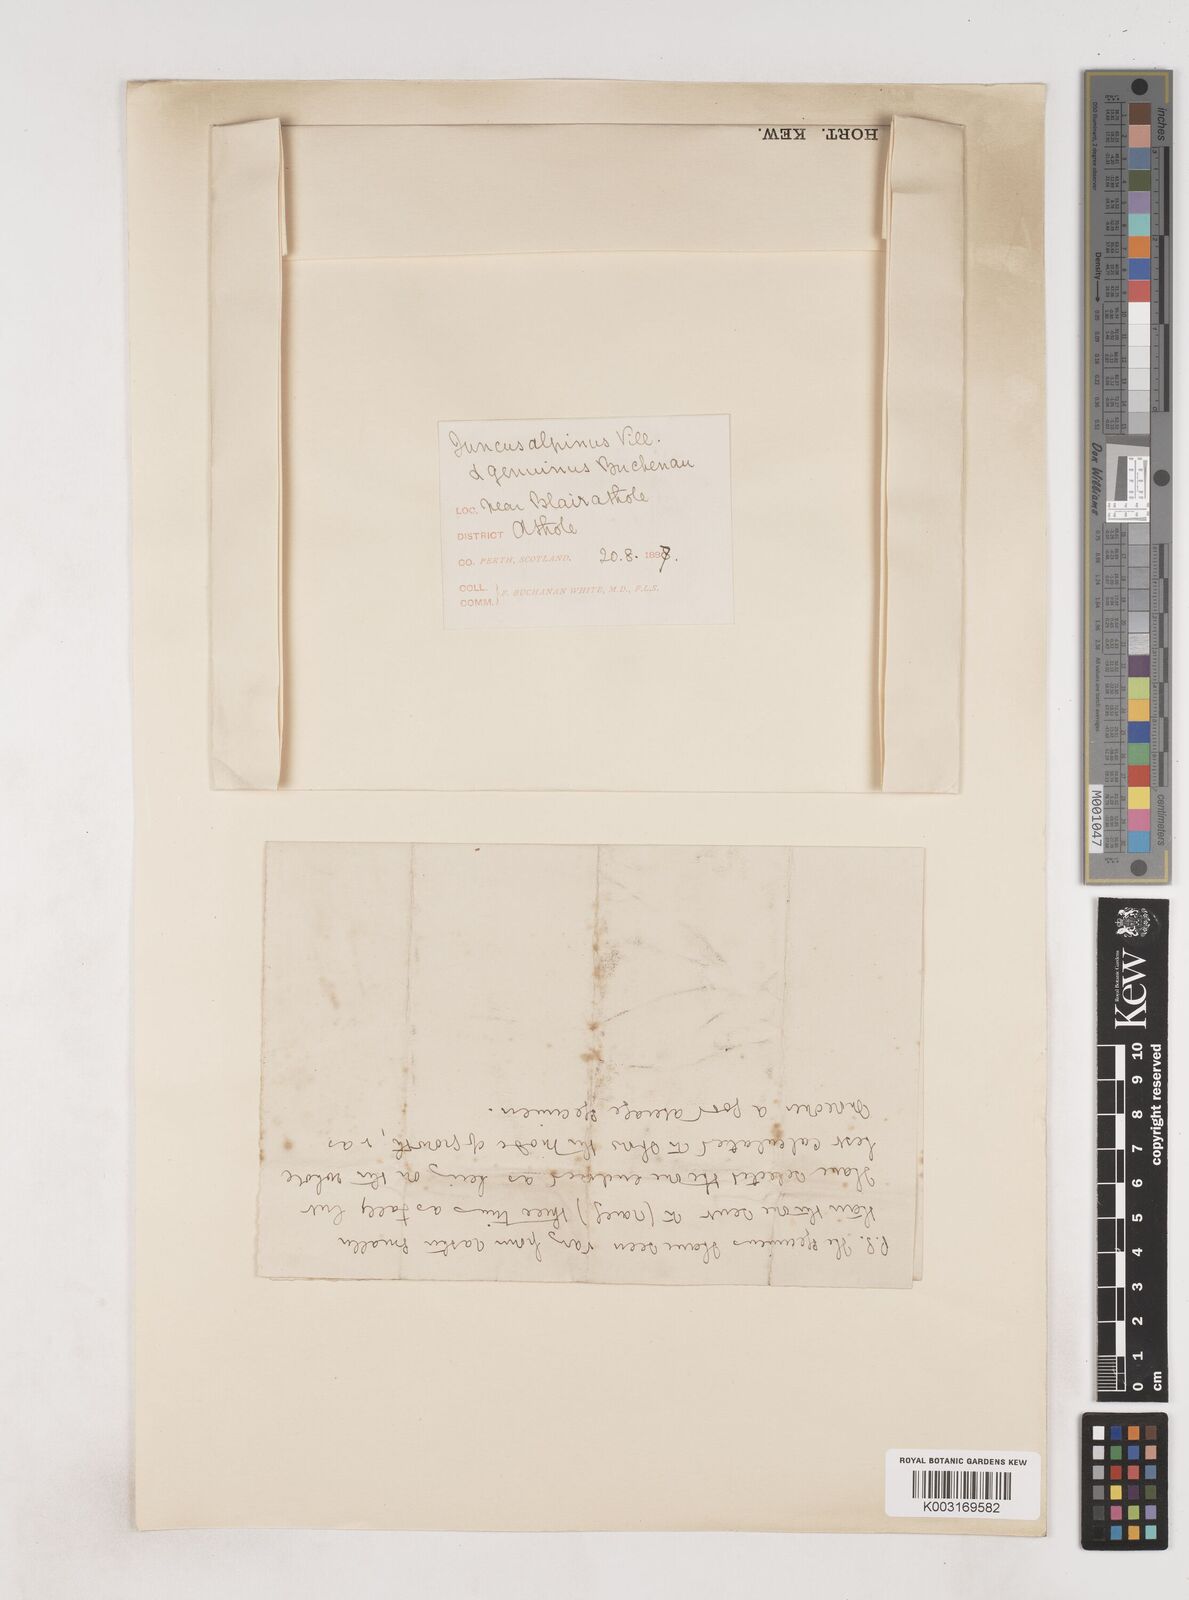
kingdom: Plantae
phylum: Tracheophyta
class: Liliopsida
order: Poales
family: Juncaceae
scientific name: Juncaceae
